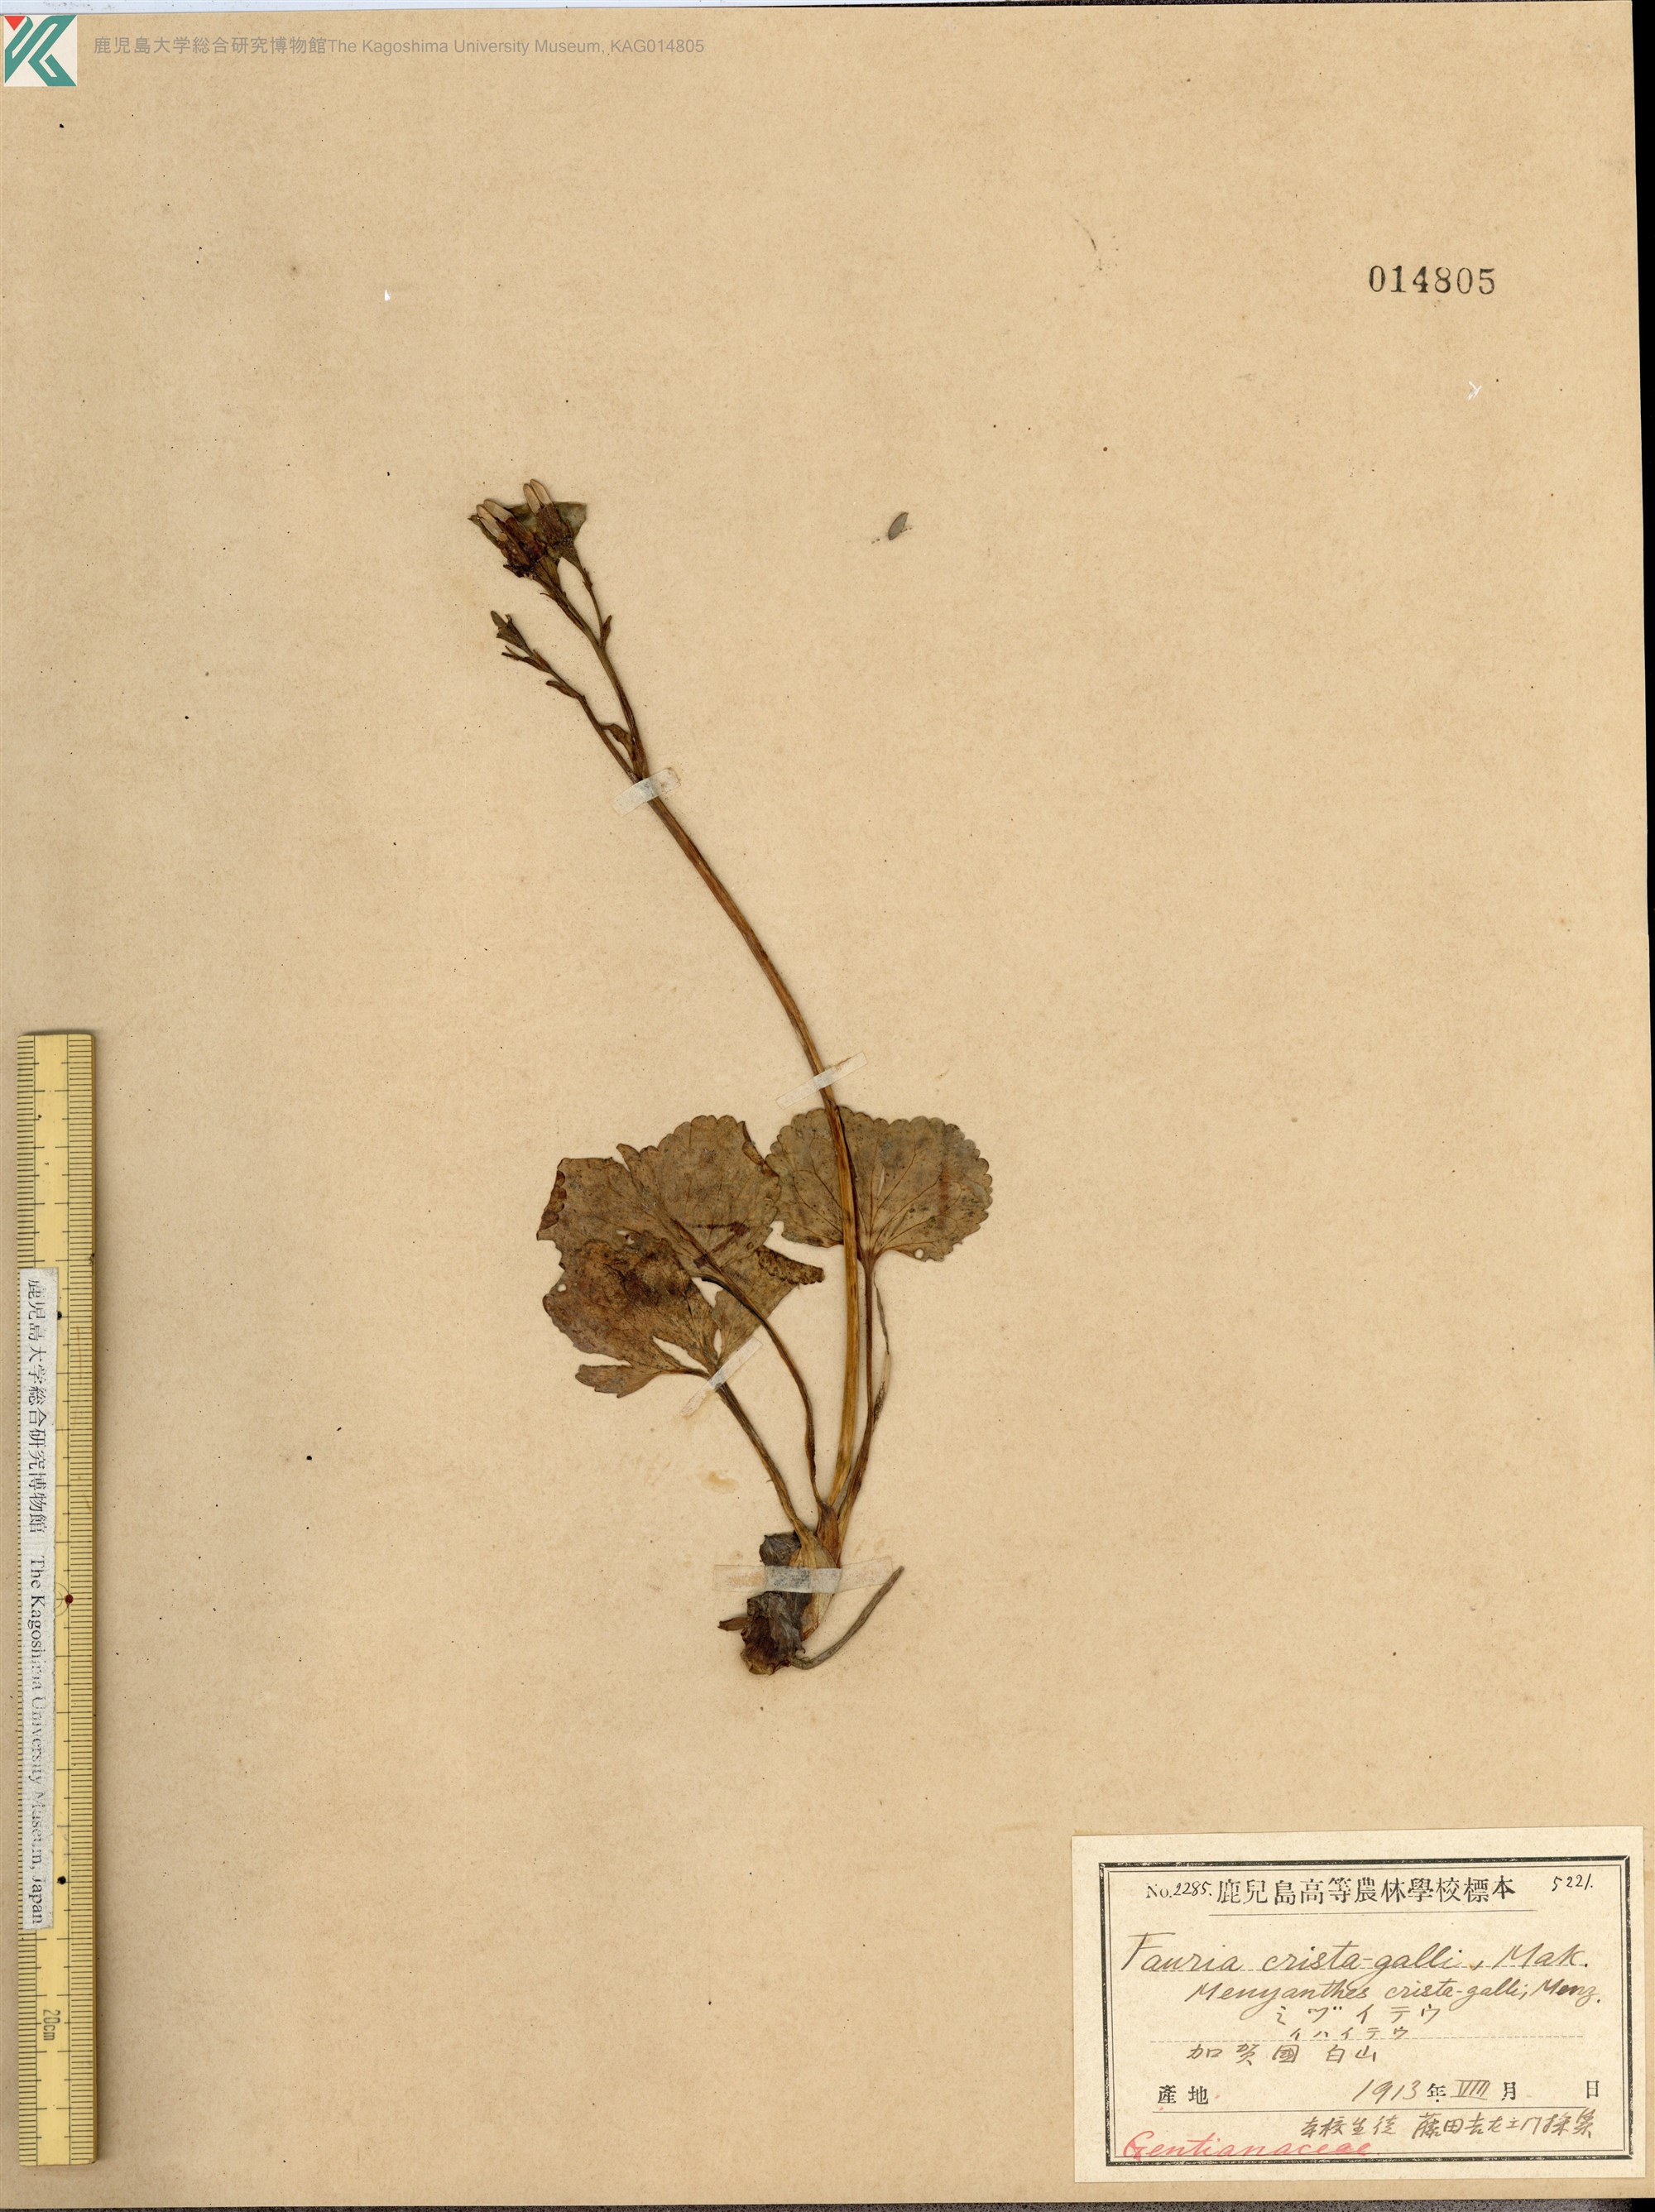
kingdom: Plantae
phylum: Tracheophyta
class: Magnoliopsida
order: Asterales
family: Menyanthaceae
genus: Nephrophyllidium
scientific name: Nephrophyllidium crista-galli
